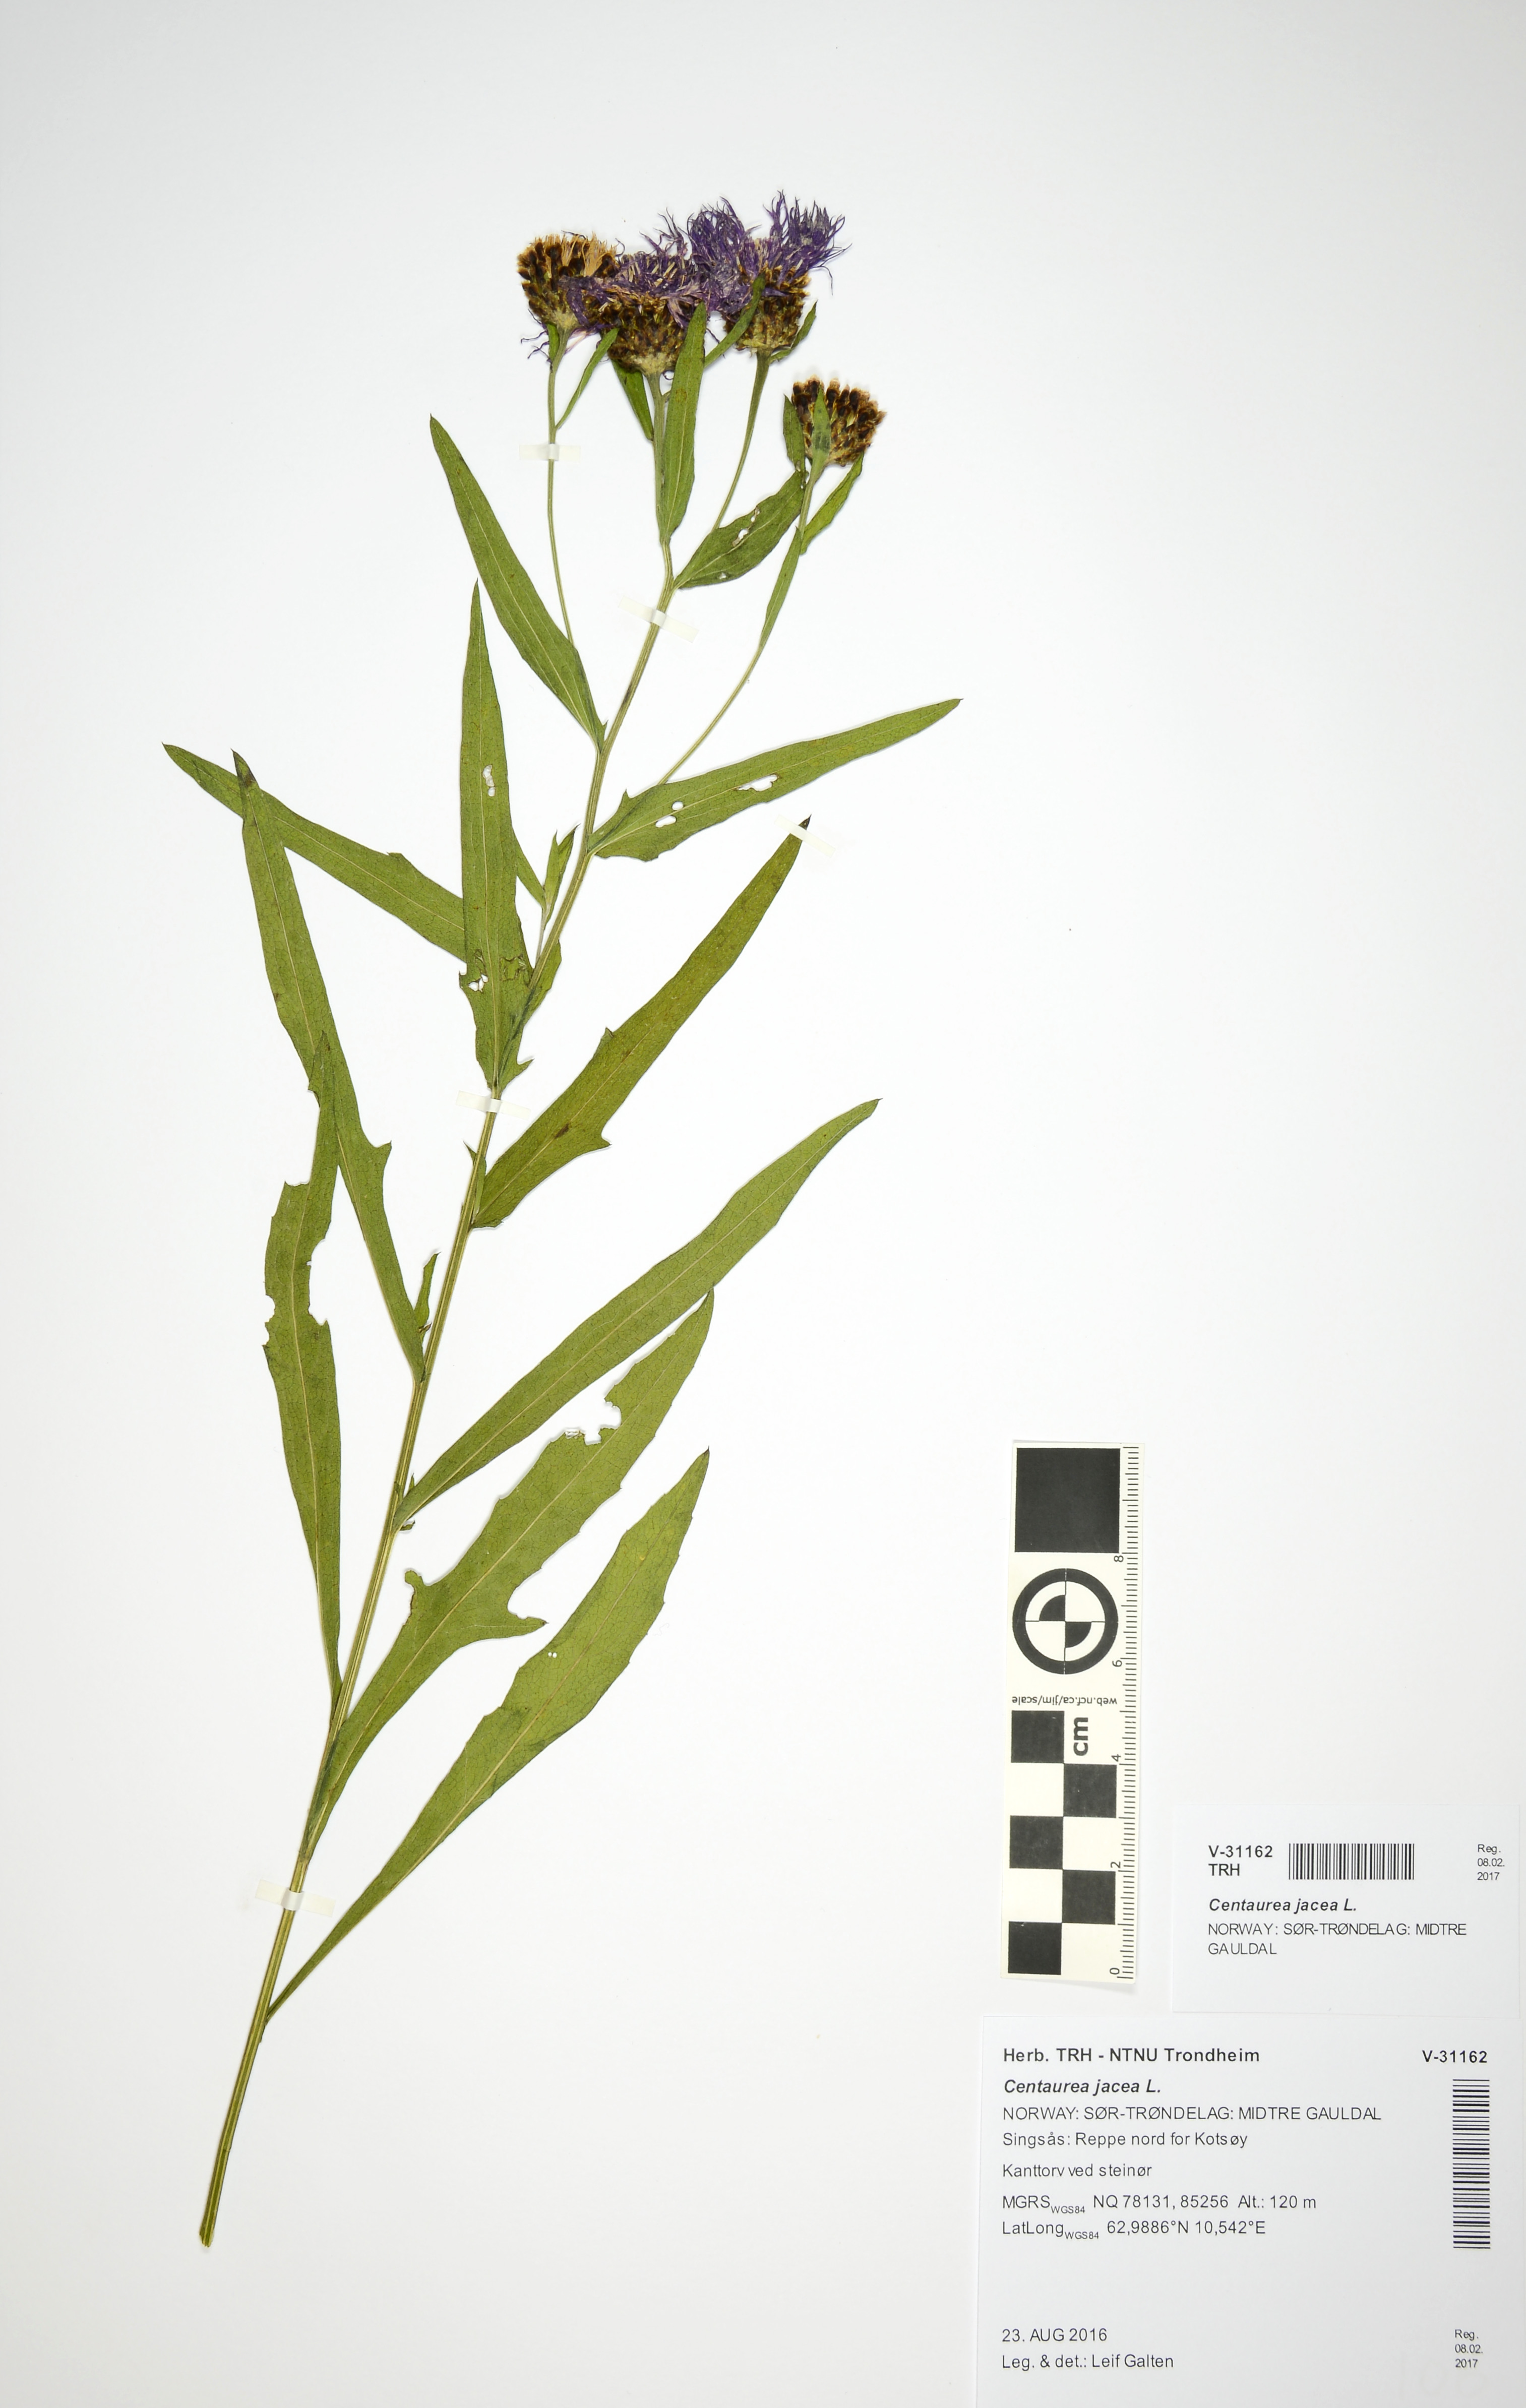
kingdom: Plantae
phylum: Tracheophyta
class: Magnoliopsida
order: Asterales
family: Asteraceae
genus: Centaurea
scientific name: Centaurea jacea
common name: Brown knapweed
